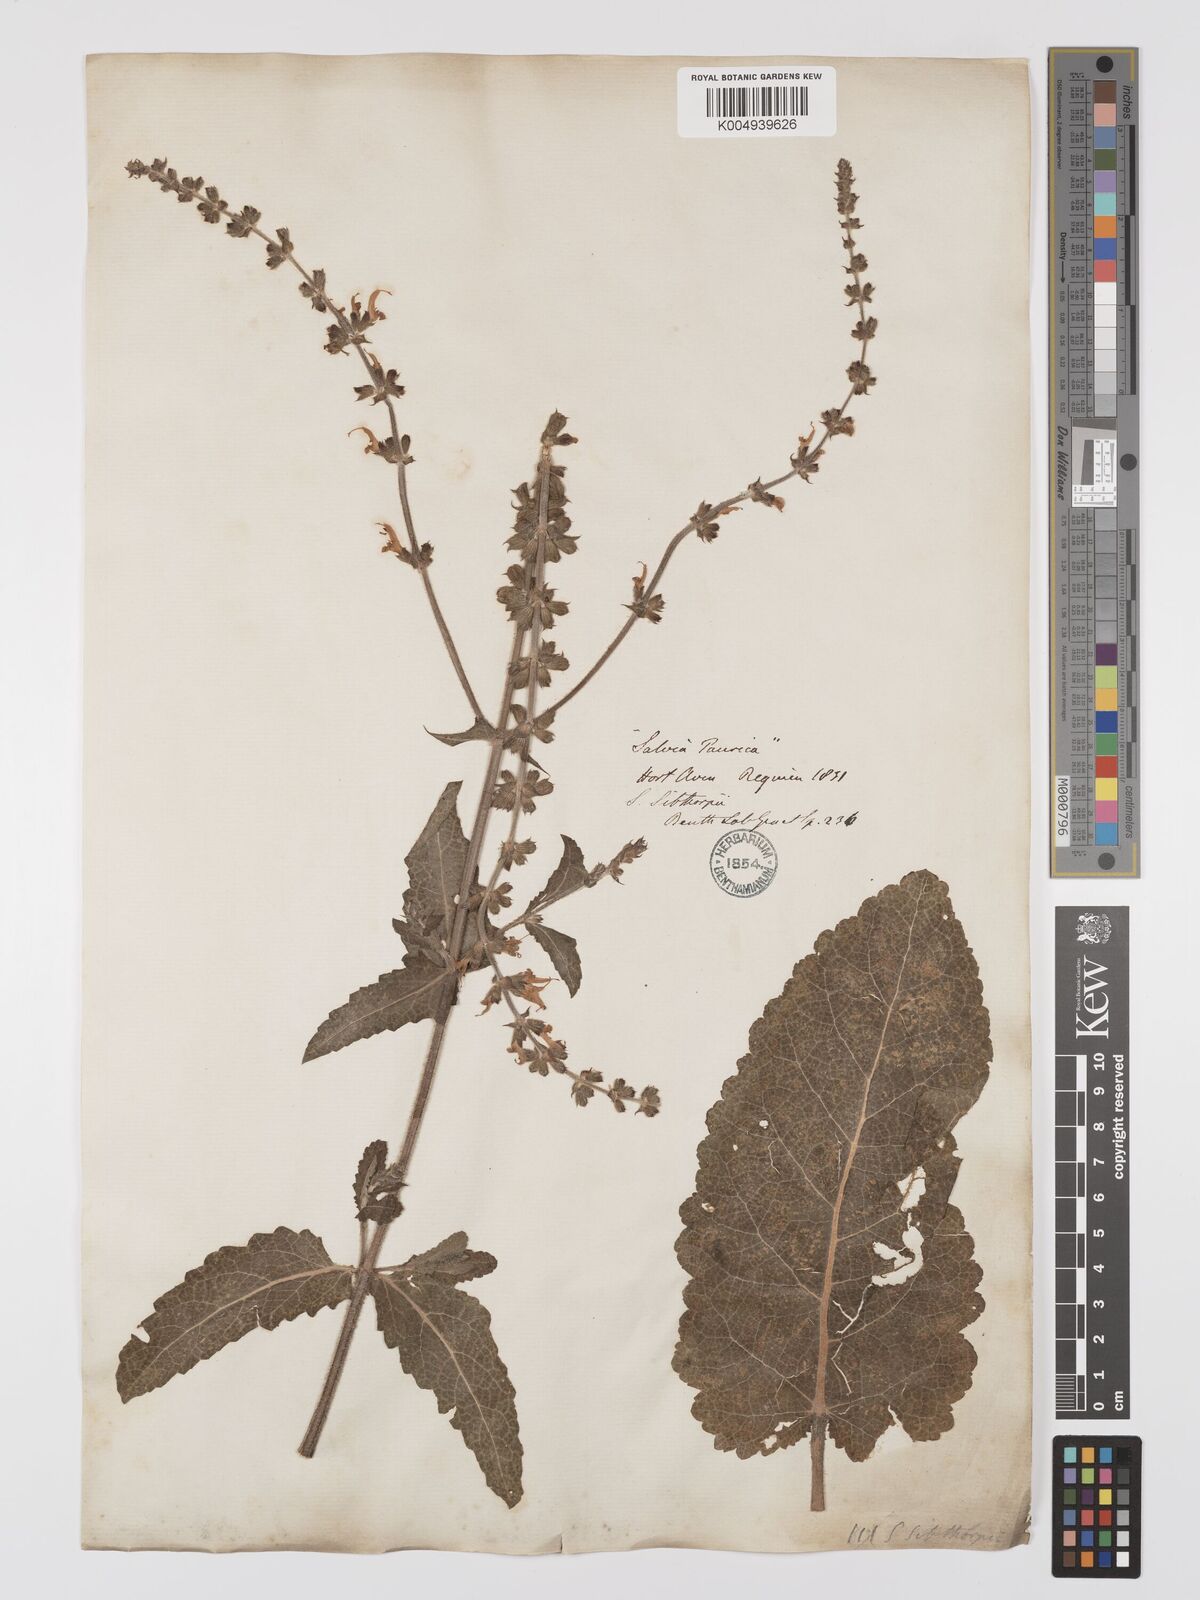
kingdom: Plantae
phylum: Tracheophyta
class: Magnoliopsida
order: Lamiales
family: Lamiaceae
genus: Salvia
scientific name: Salvia
